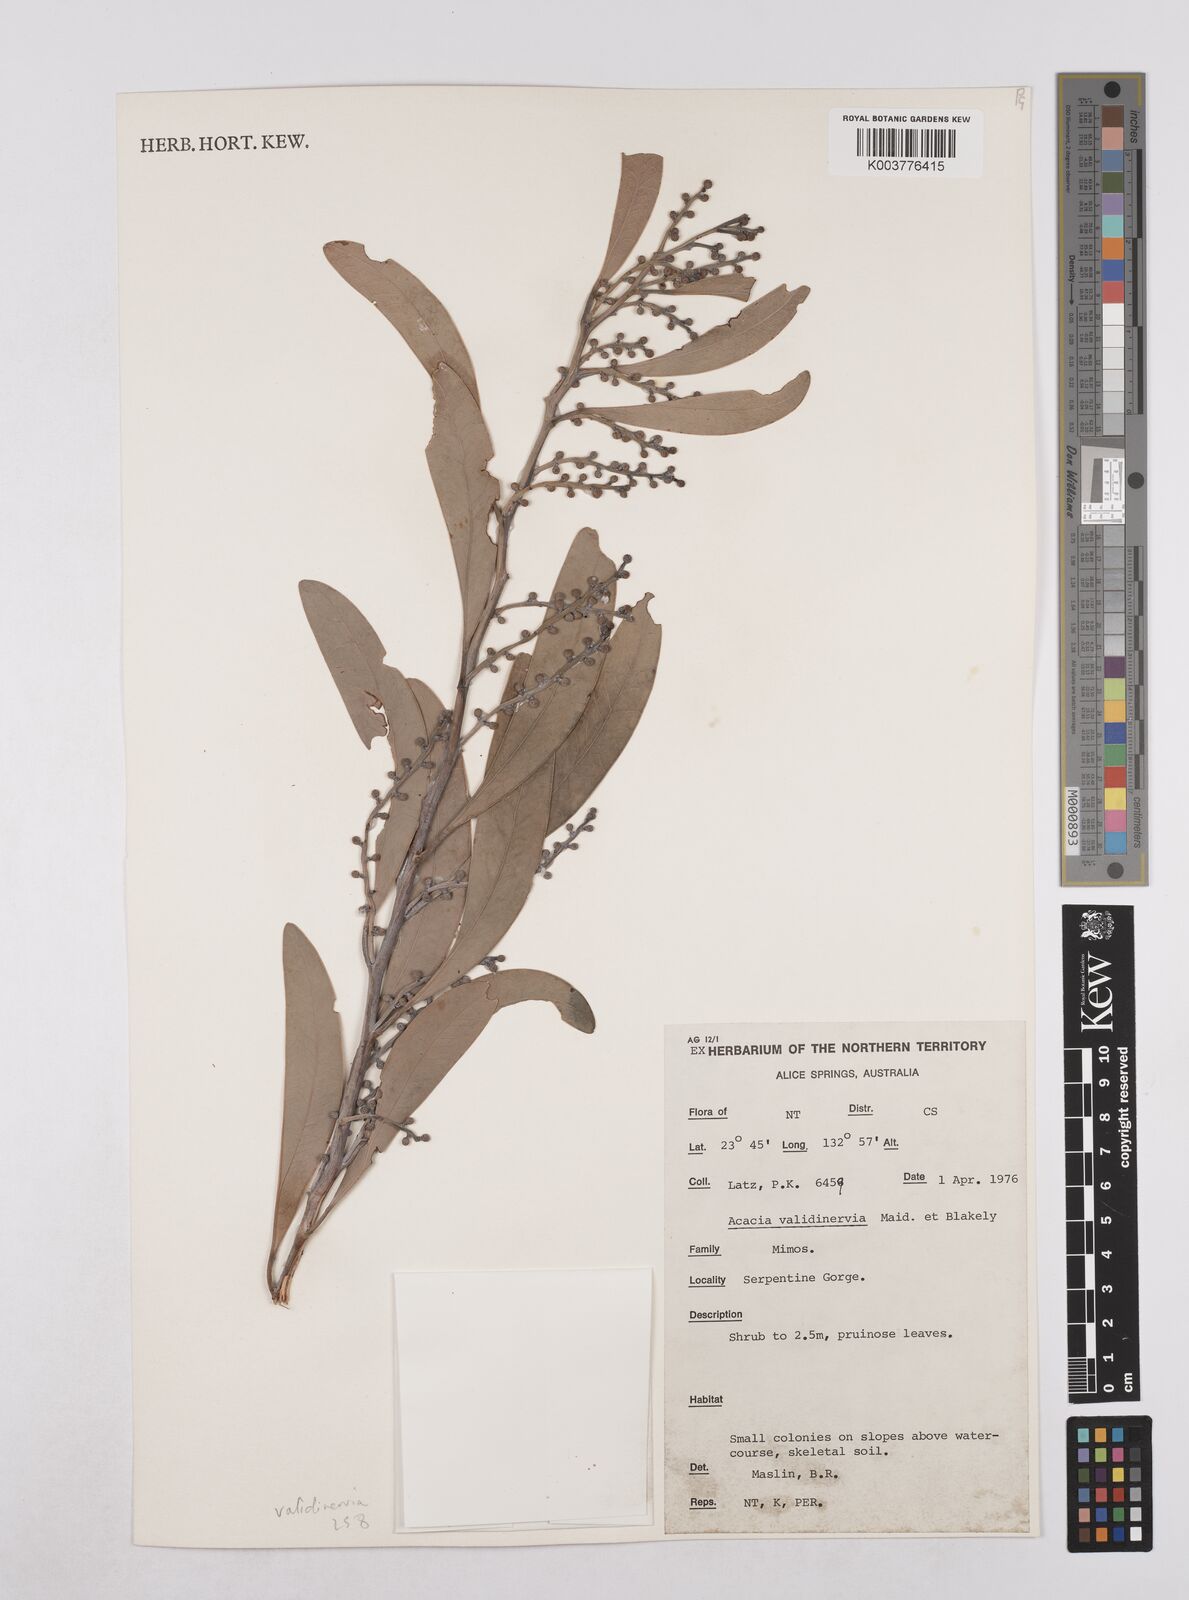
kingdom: Plantae
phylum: Tracheophyta
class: Magnoliopsida
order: Fabales
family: Fabaceae
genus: Acacia
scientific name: Acacia validinervia
